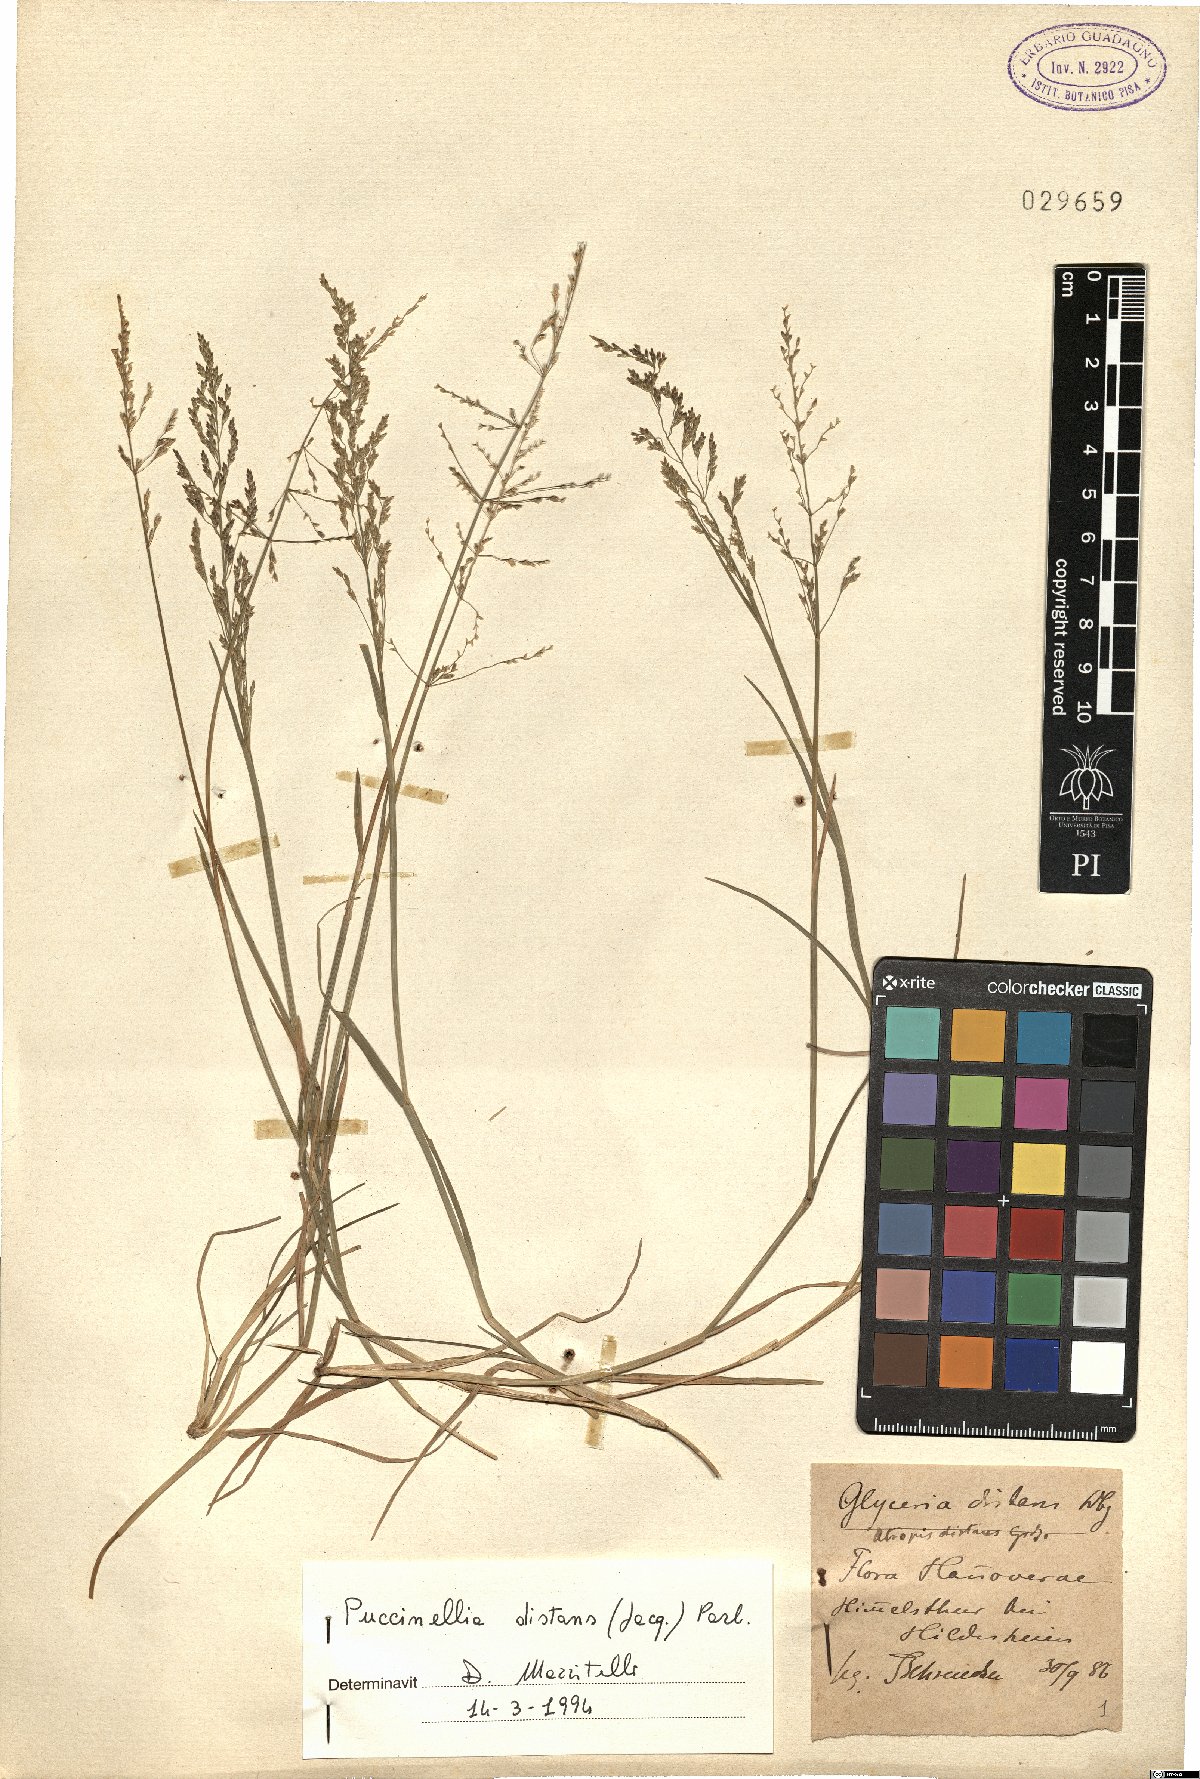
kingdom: Plantae
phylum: Tracheophyta
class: Liliopsida
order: Poales
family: Poaceae
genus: Puccinellia
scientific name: Puccinellia distans
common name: Weeping alkaligrass
